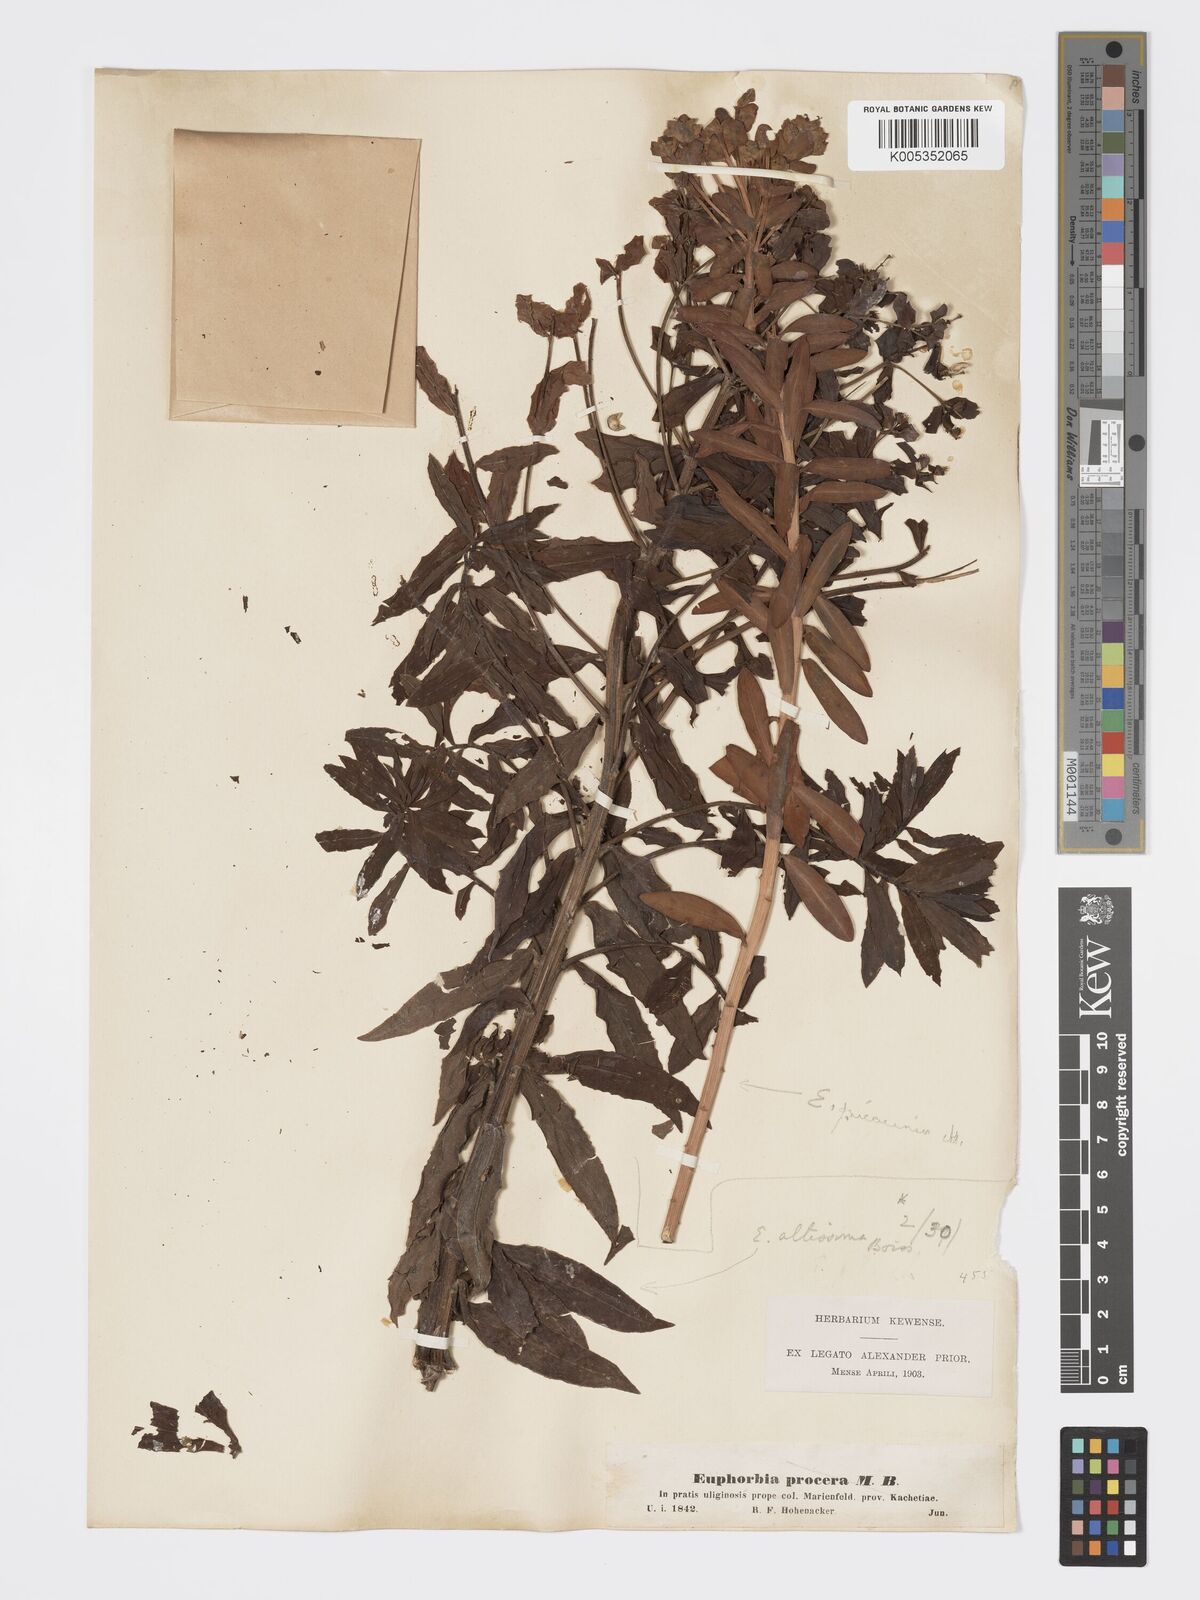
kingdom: Plantae
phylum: Tracheophyta
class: Magnoliopsida
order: Malpighiales
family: Euphorbiaceae
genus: Euphorbia
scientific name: Euphorbia nicaeensis
